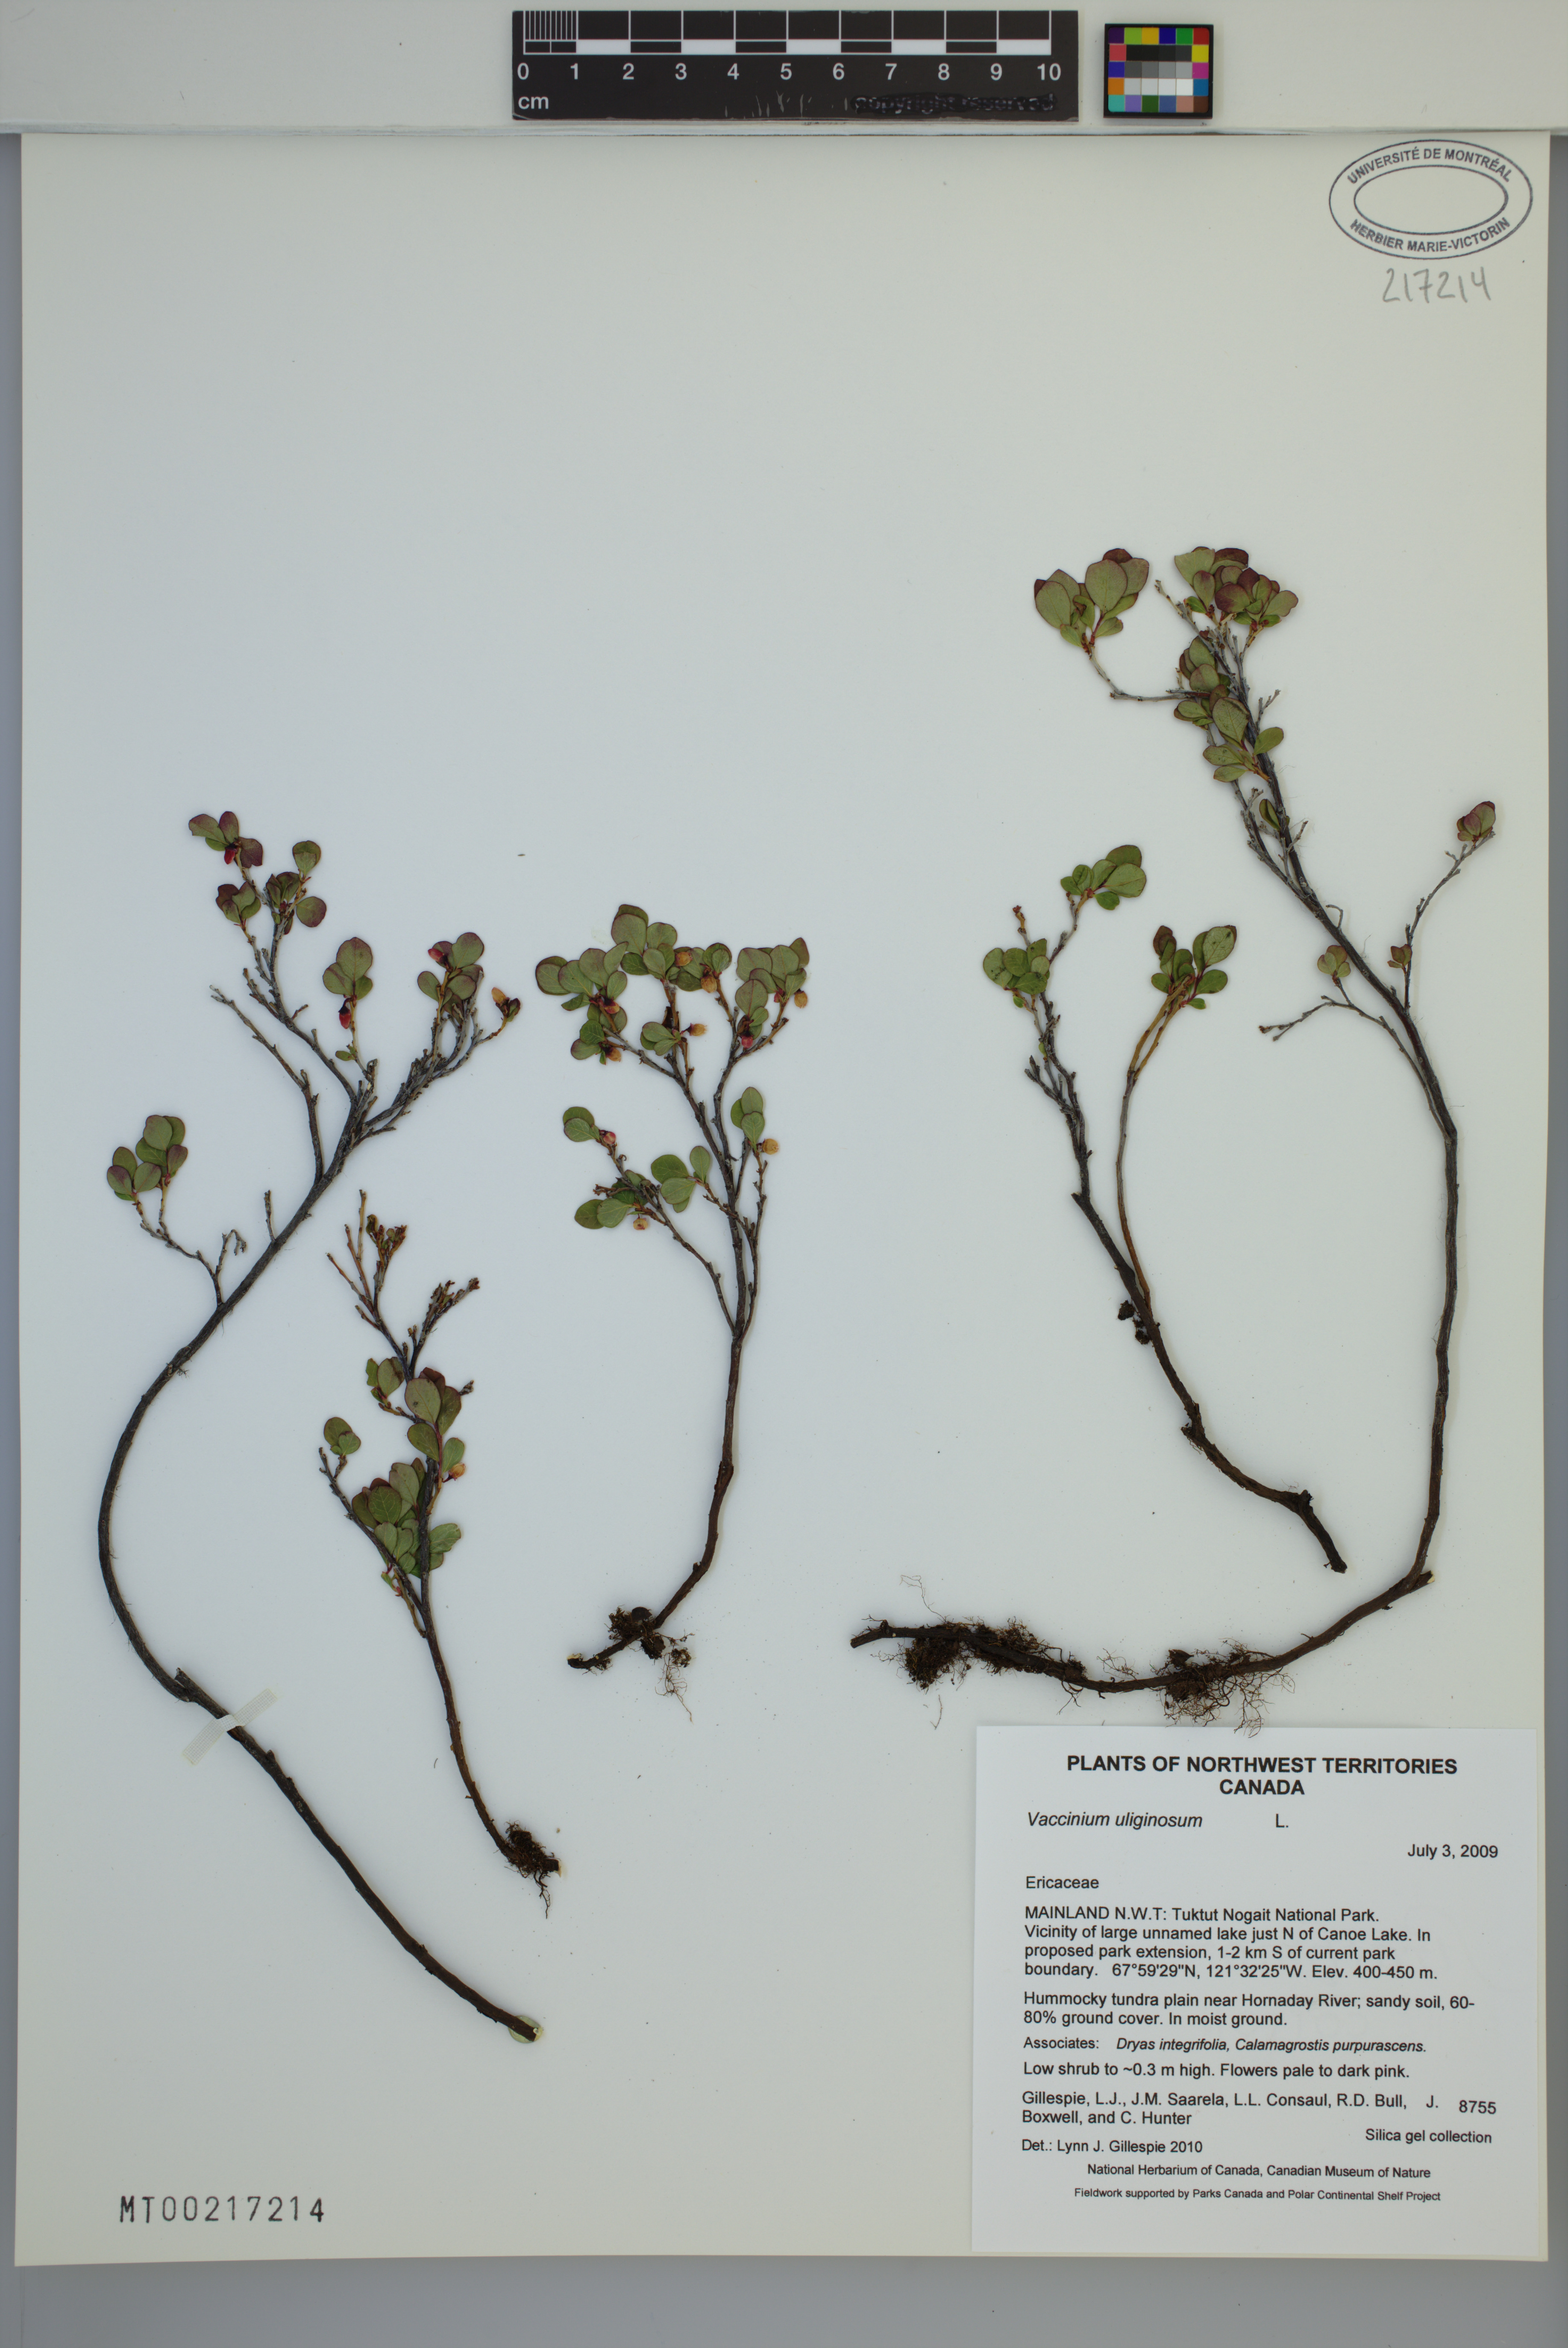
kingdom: Plantae
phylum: Tracheophyta
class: Magnoliopsida
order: Ericales
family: Ericaceae
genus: Vaccinium
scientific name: Vaccinium uliginosum
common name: Bog bilberry
